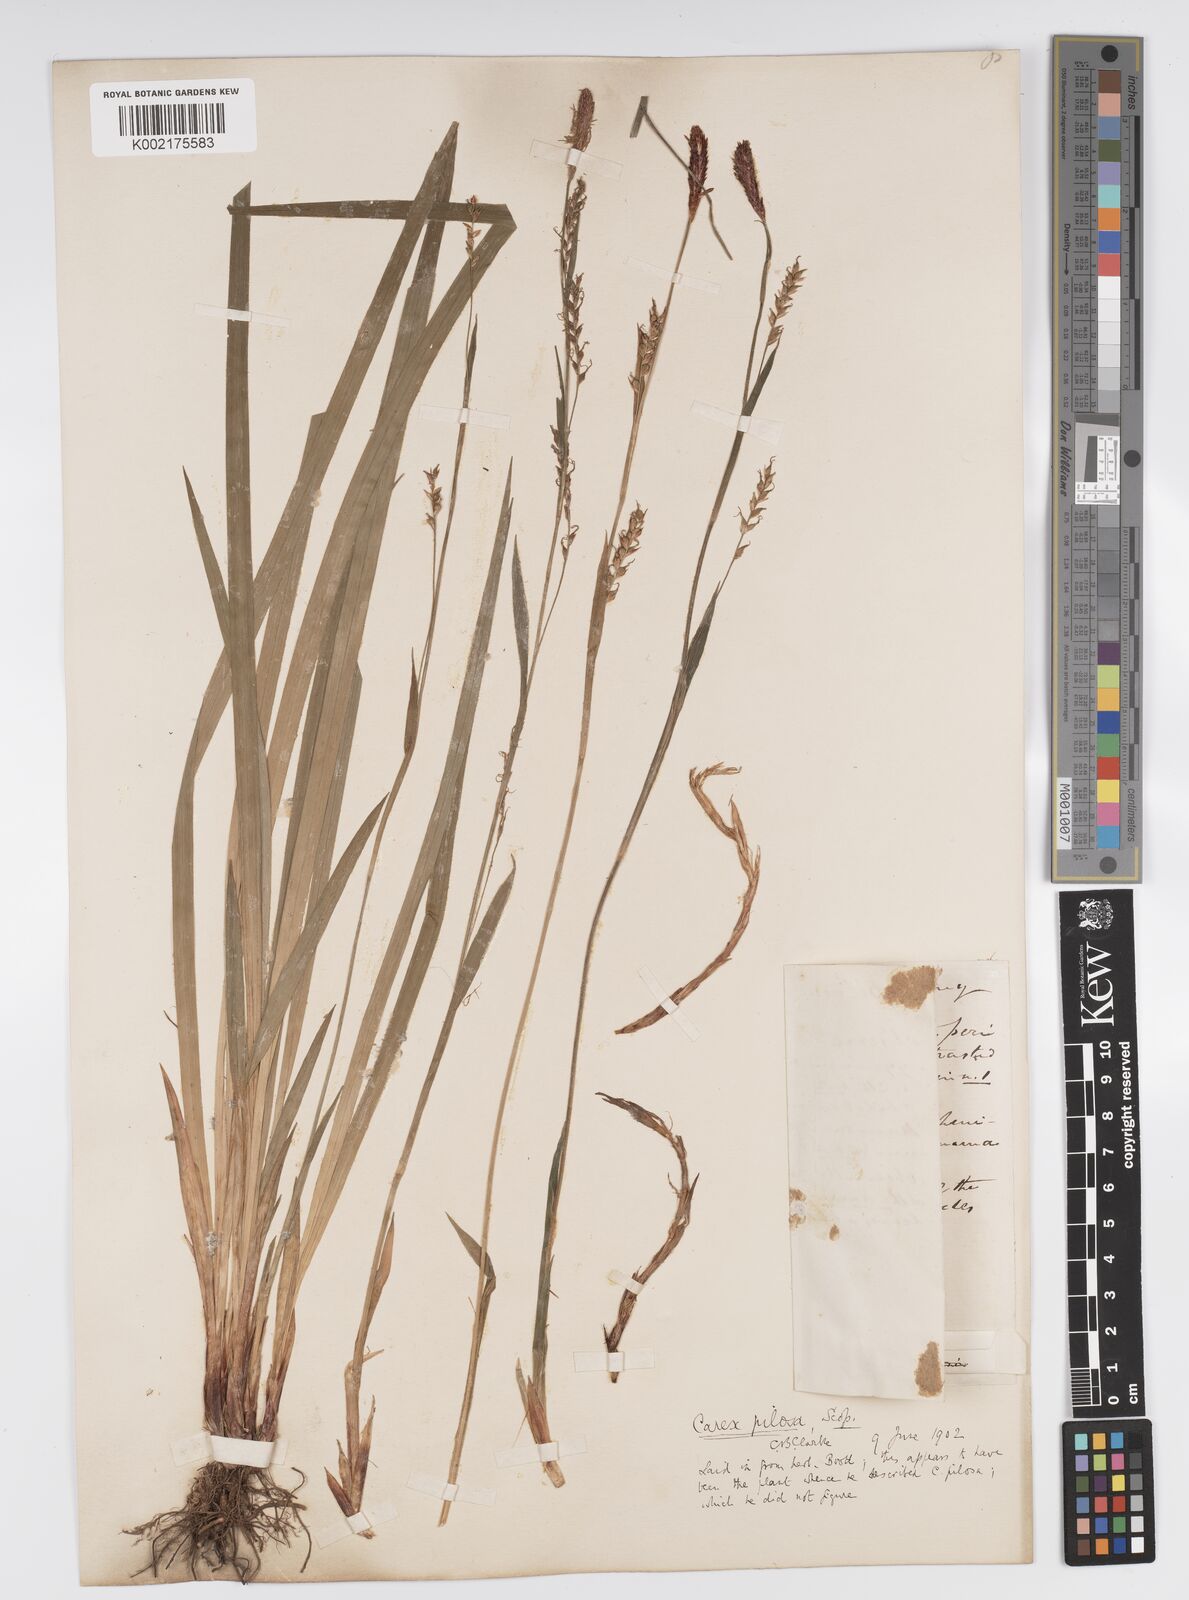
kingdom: Plantae
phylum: Tracheophyta
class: Liliopsida
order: Poales
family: Cyperaceae
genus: Carex
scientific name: Carex pilosa
